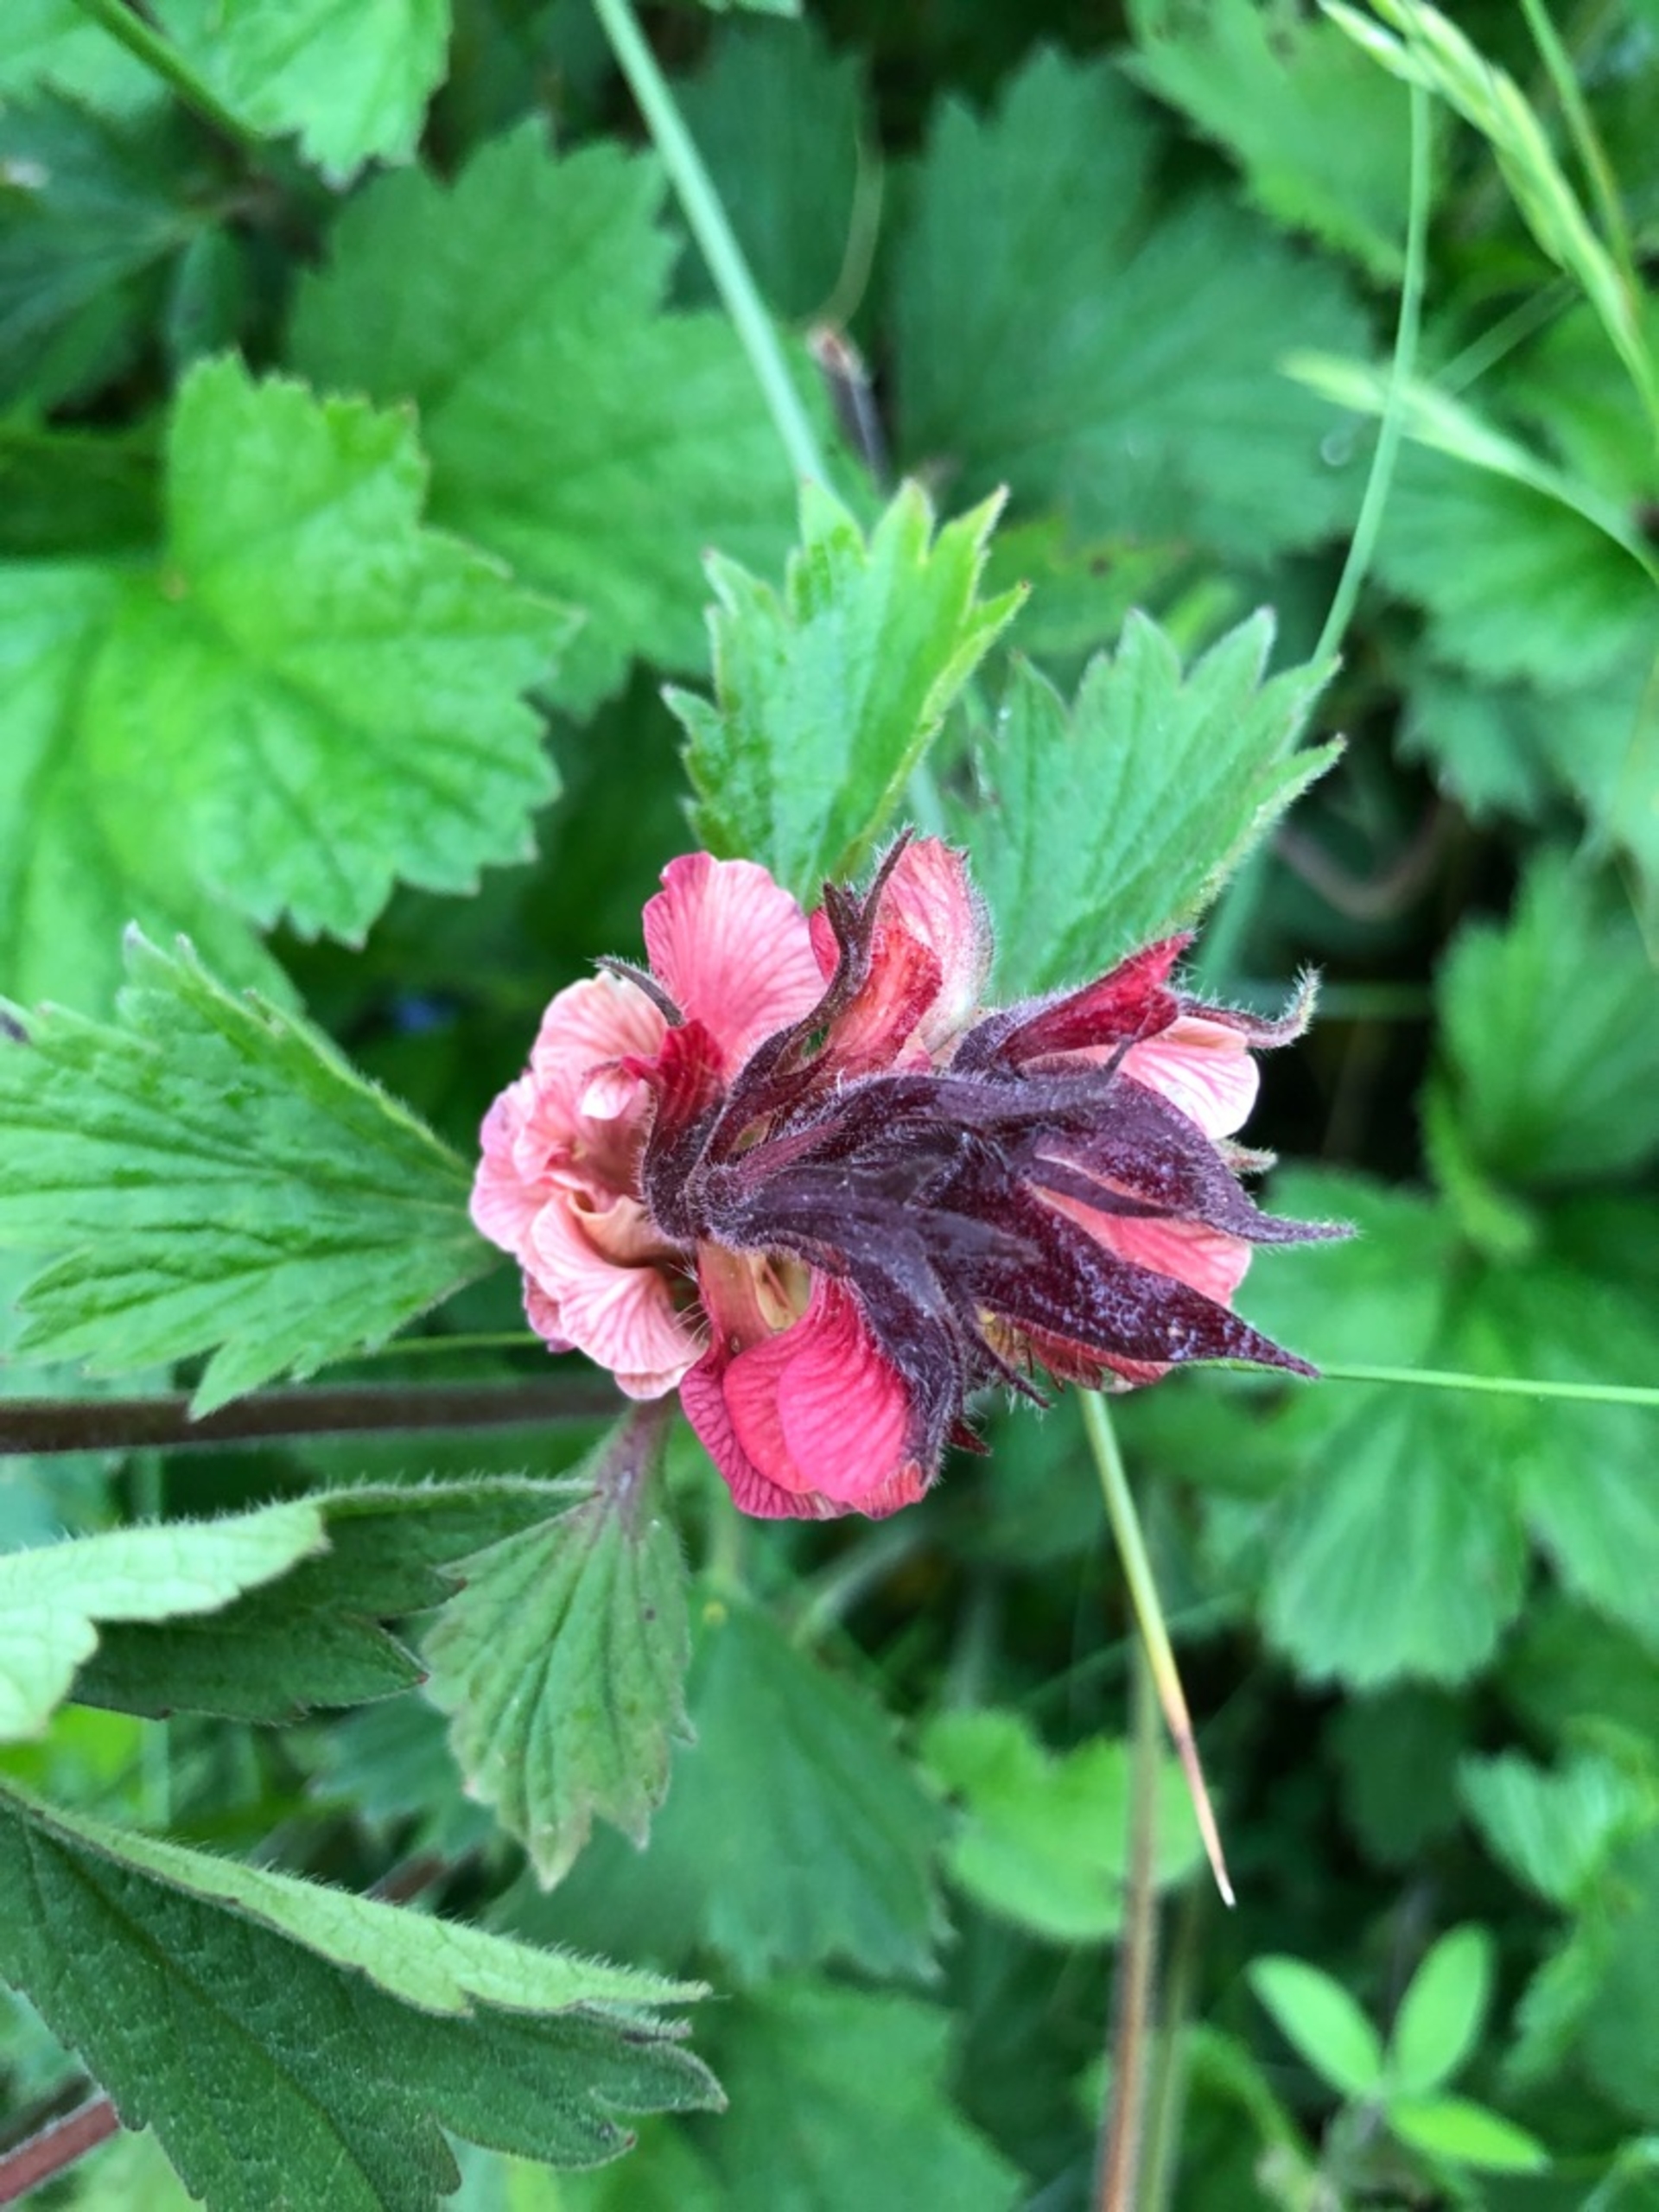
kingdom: Plantae
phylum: Tracheophyta
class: Magnoliopsida
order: Rosales
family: Rosaceae
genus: Geum
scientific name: Geum rivale
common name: Eng-nellikerod
